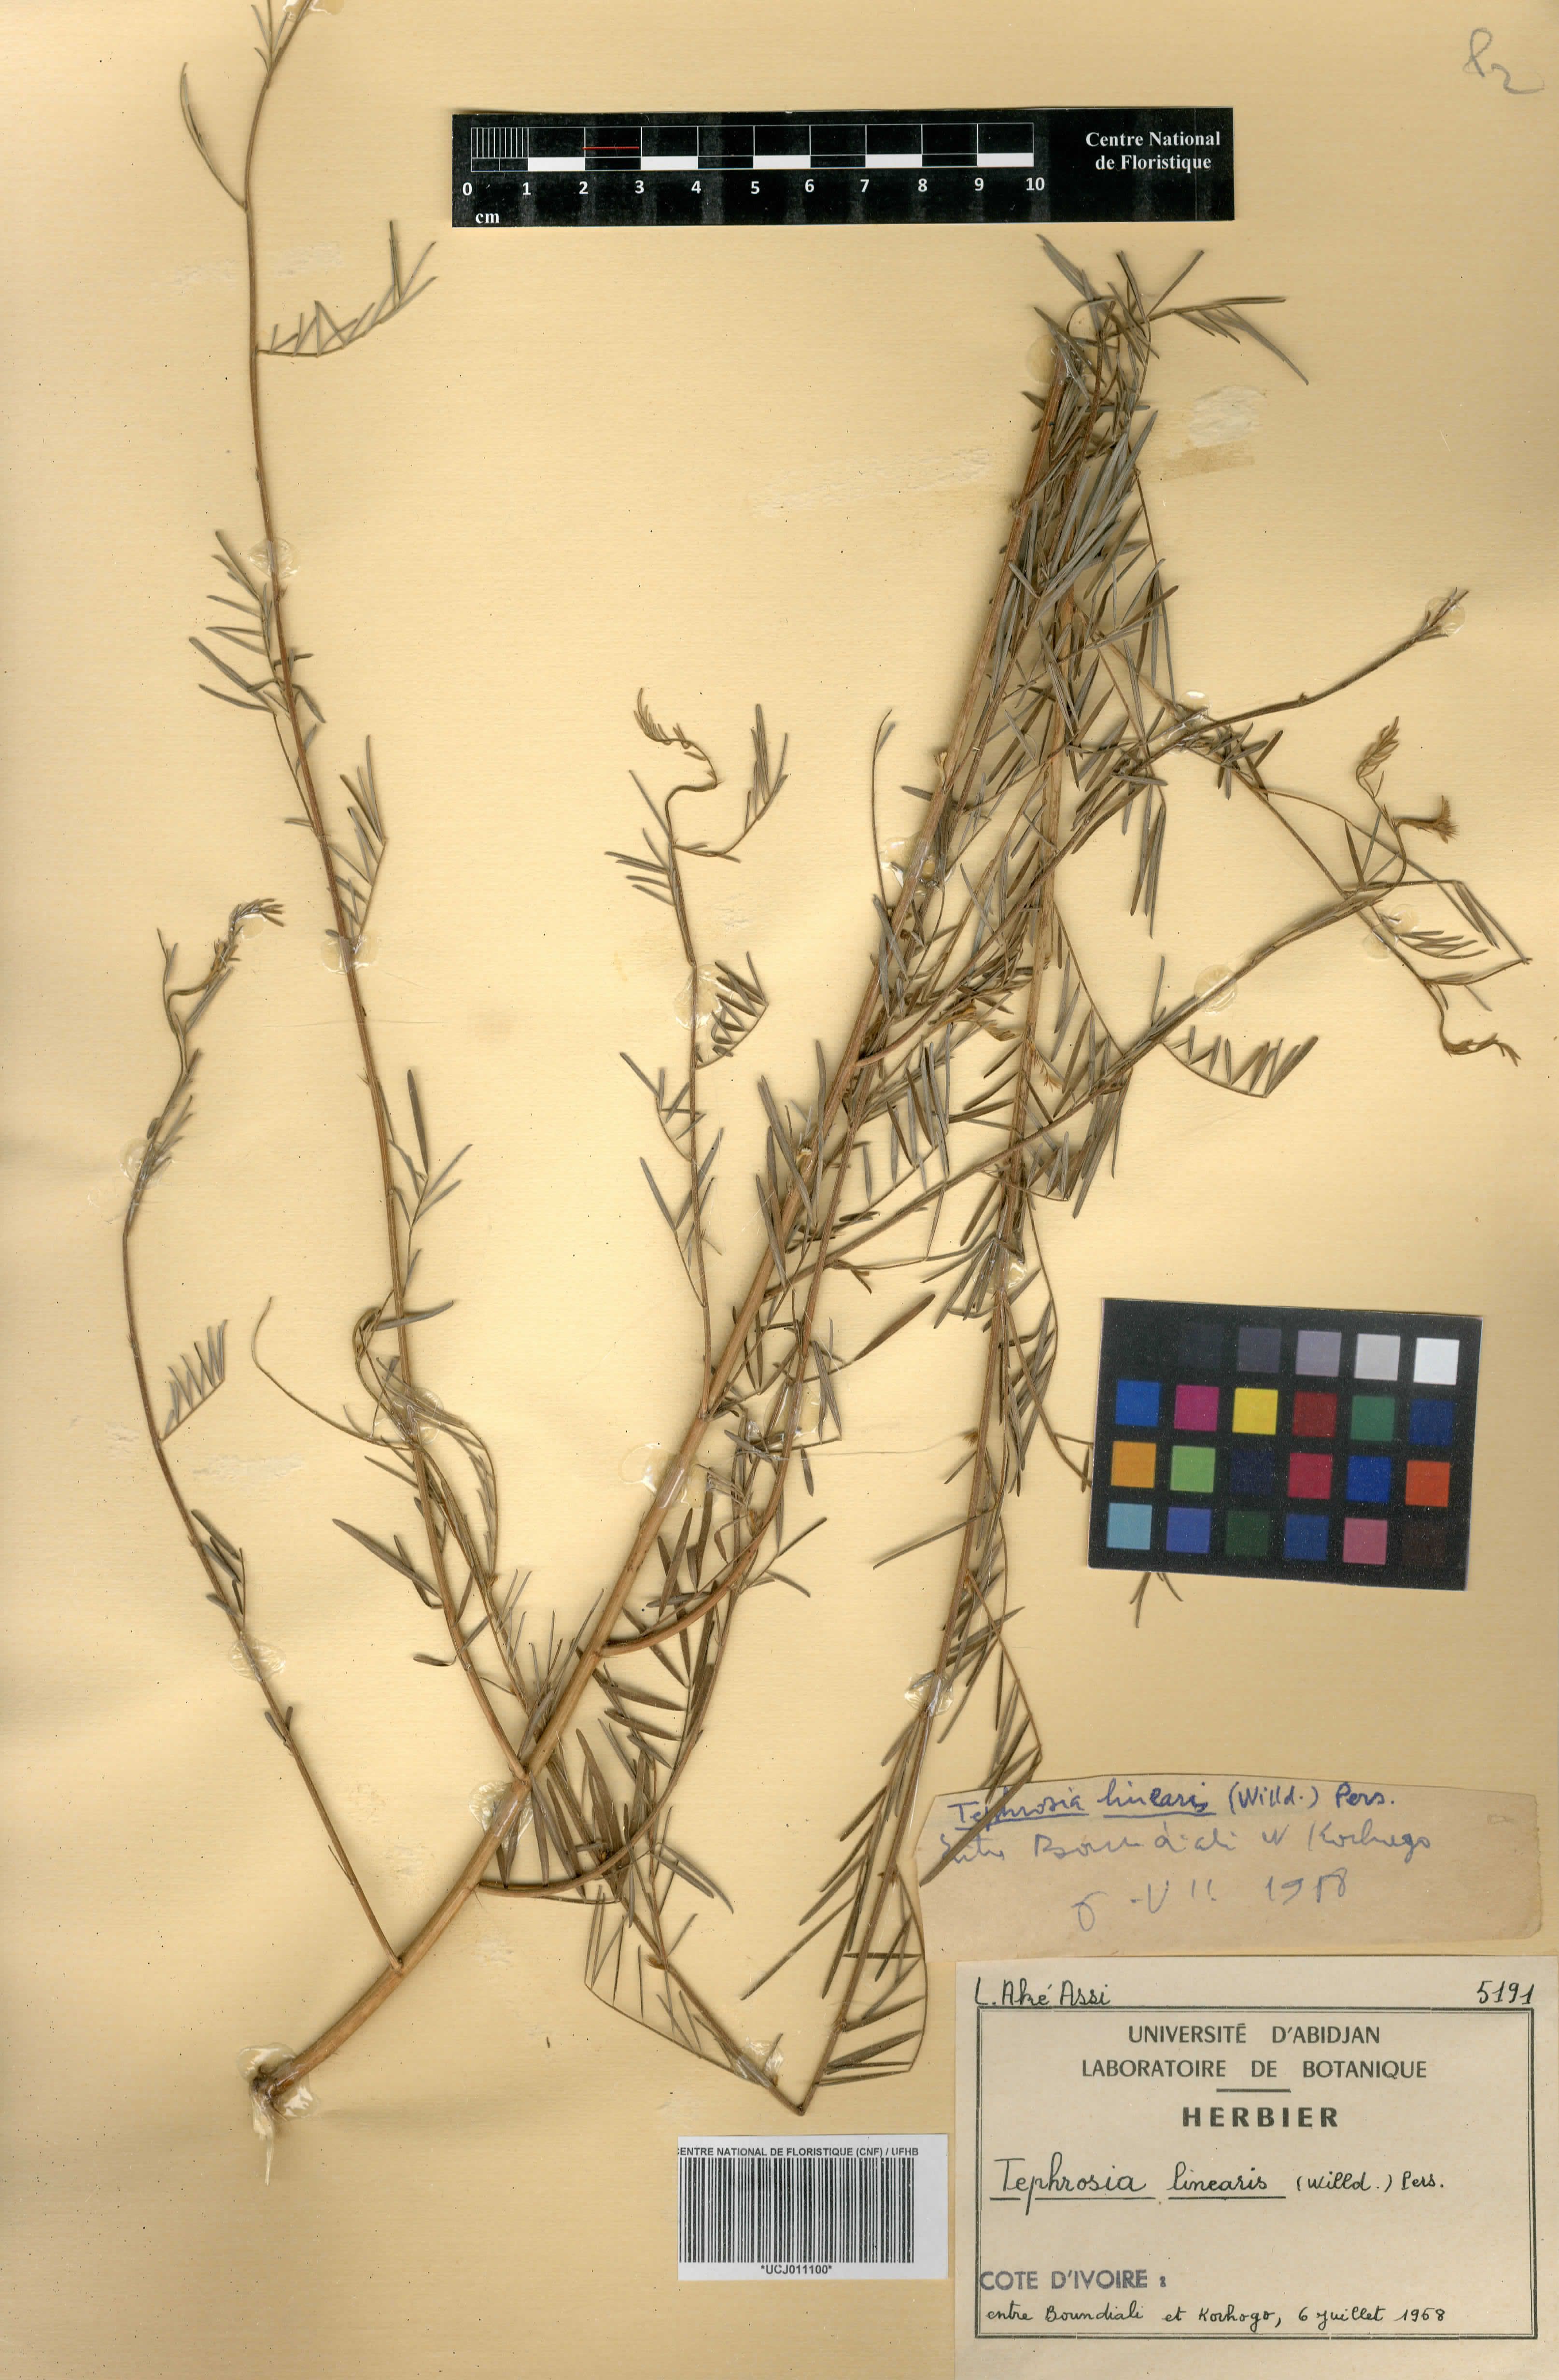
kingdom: Plantae
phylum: Tracheophyta
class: Magnoliopsida
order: Fabales
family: Fabaceae
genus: Tephrosia
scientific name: Tephrosia linearis
